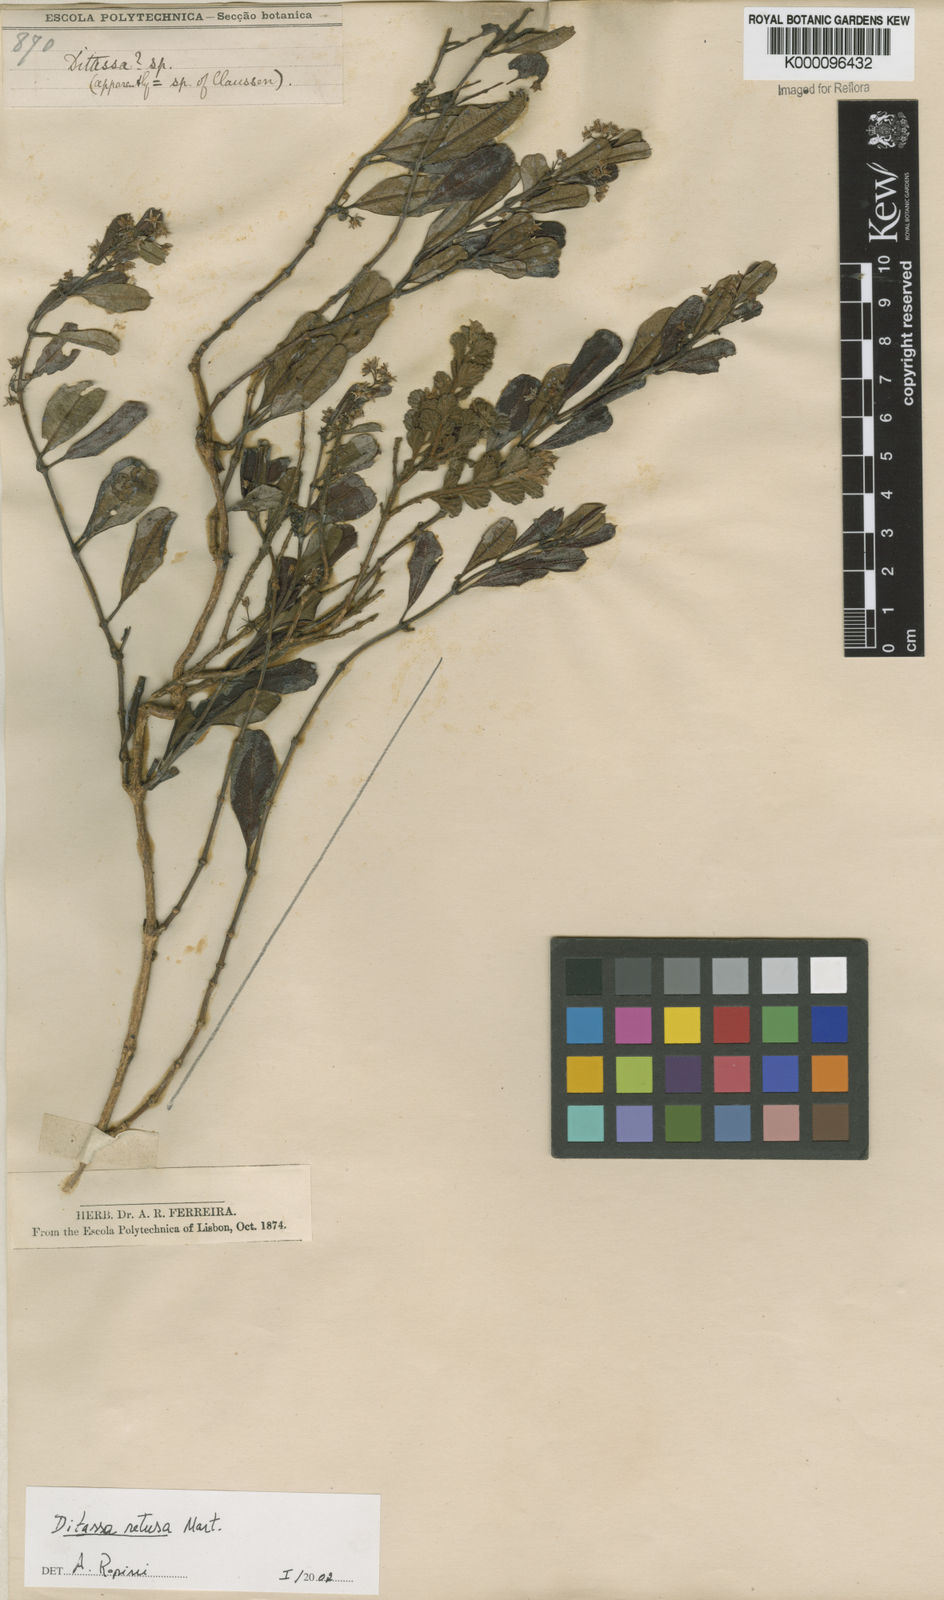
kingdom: Plantae
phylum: Tracheophyta
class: Magnoliopsida
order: Gentianales
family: Apocynaceae
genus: Ditassa
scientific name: Ditassa retusa
